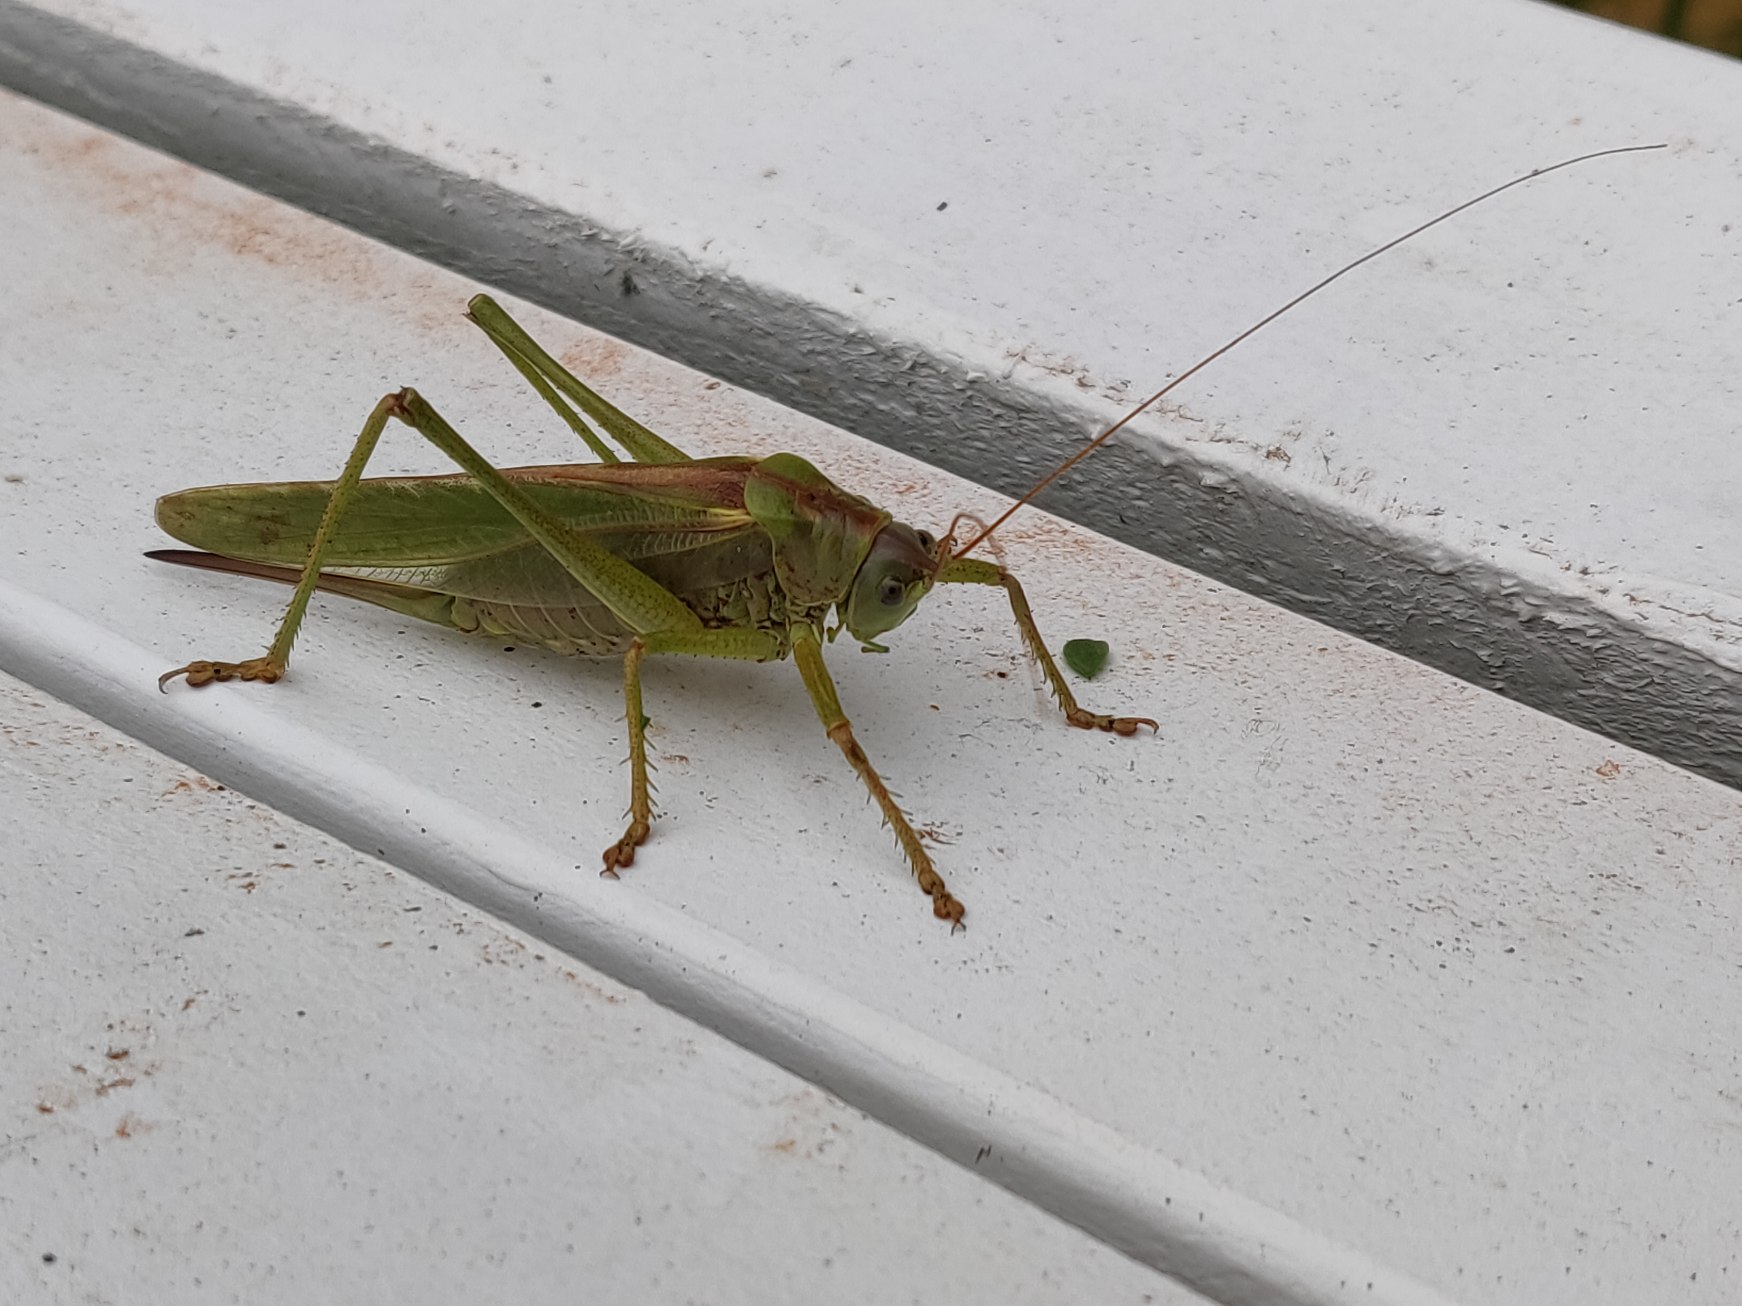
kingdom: Animalia
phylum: Arthropoda
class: Insecta
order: Orthoptera
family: Tettigoniidae
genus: Tettigonia
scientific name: Tettigonia viridissima
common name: Stor grøn løvgræshoppe
